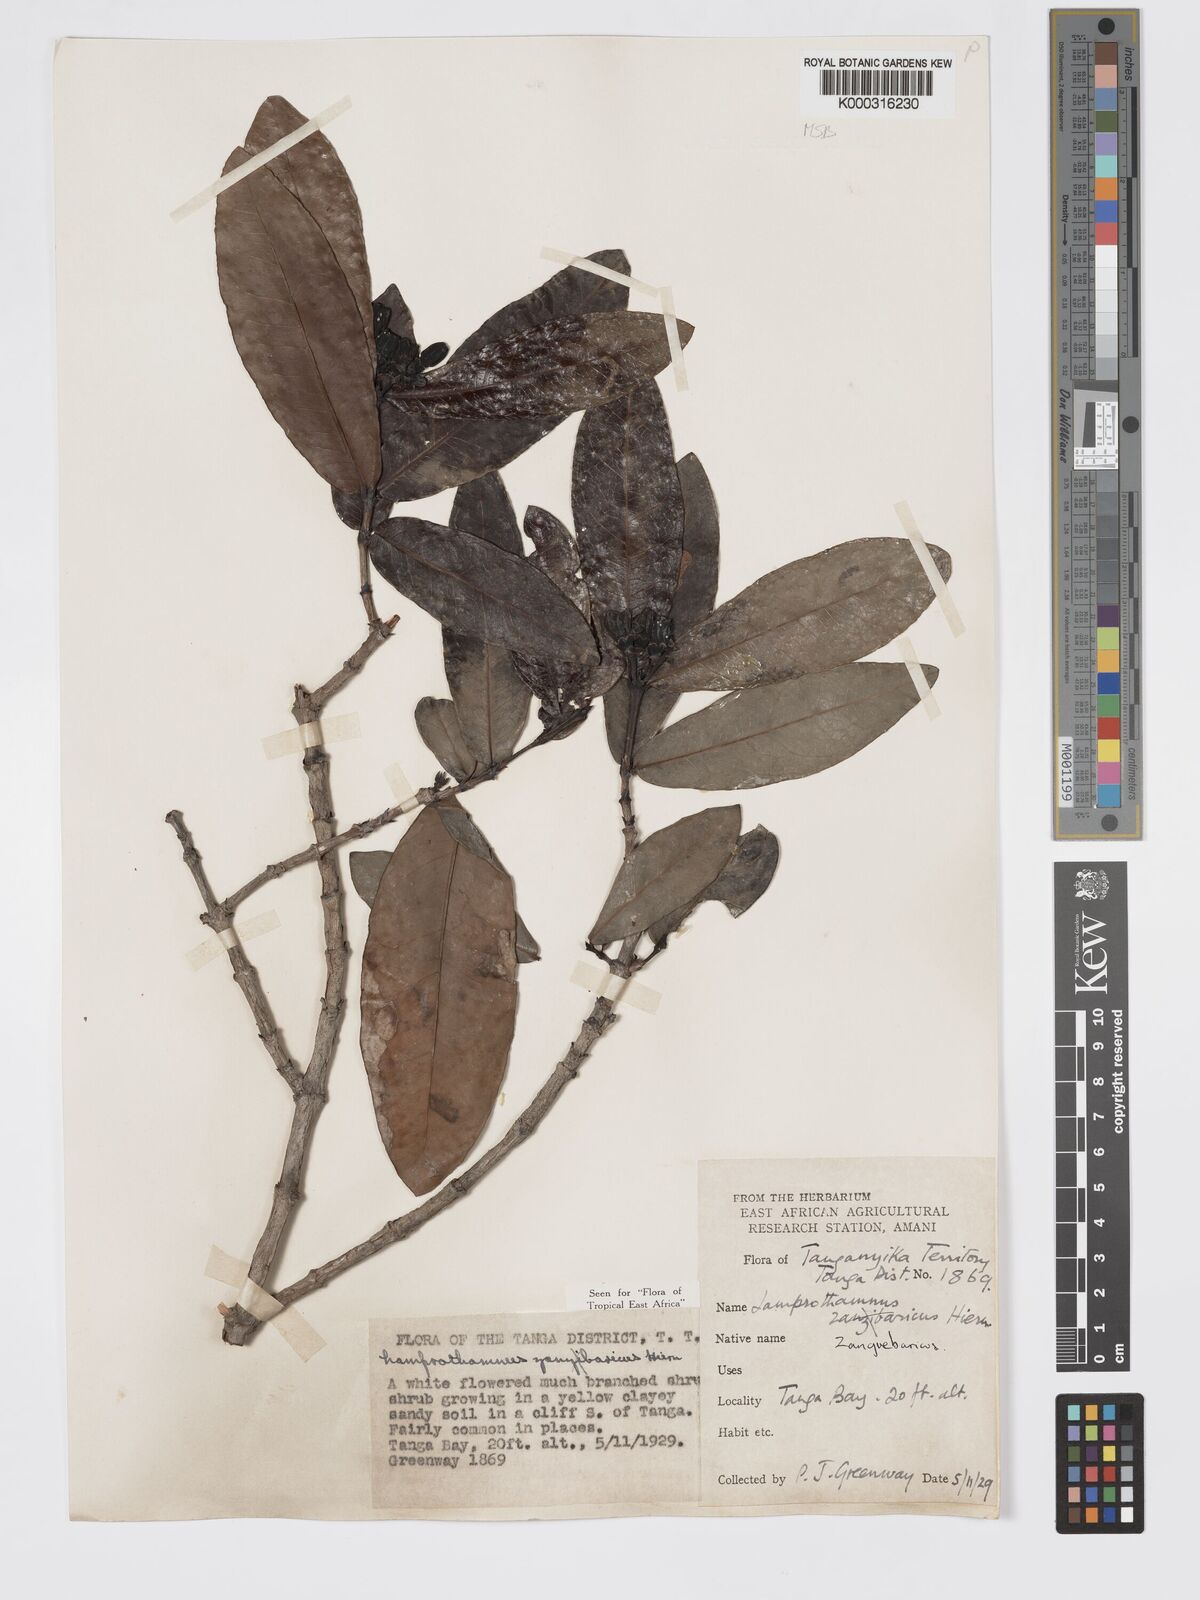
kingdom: Plantae
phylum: Tracheophyta
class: Magnoliopsida
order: Gentianales
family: Rubiaceae
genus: Lamprothamnus
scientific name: Lamprothamnus zanguebaricus
